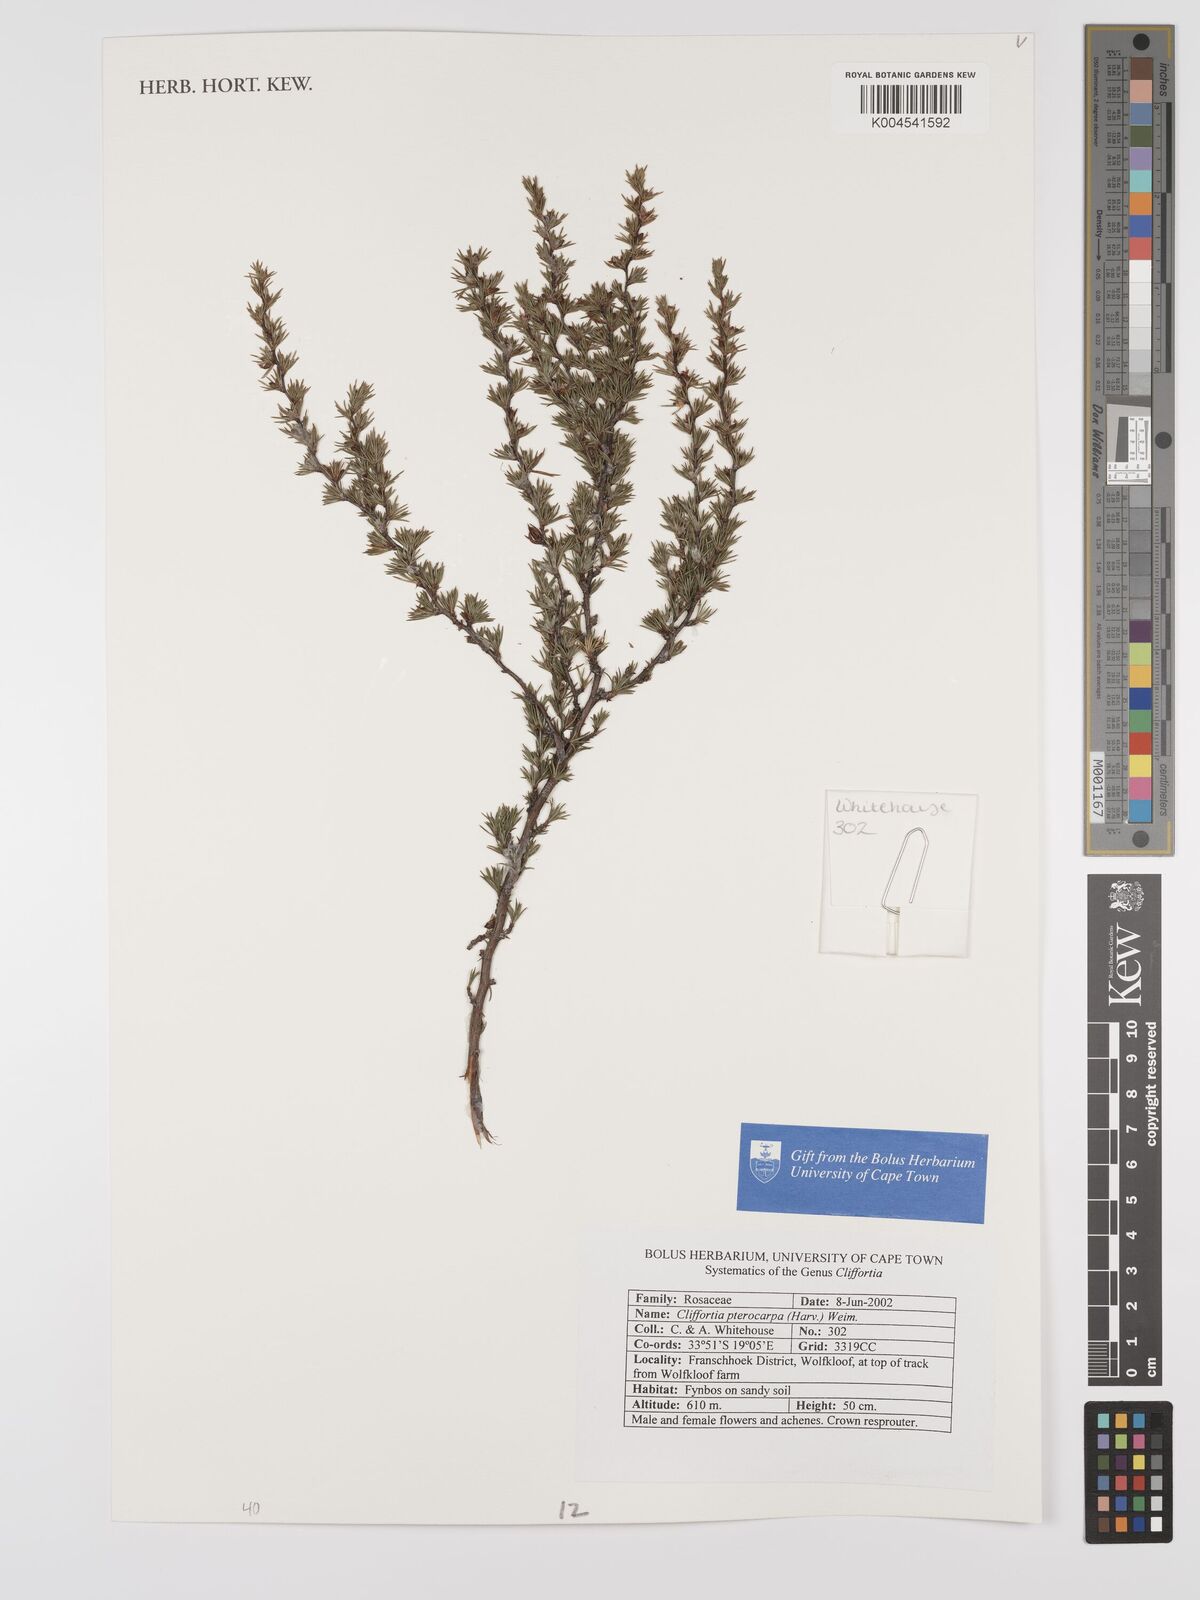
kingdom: Plantae
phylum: Tracheophyta
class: Magnoliopsida
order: Rosales
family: Rosaceae
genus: Cliffortia
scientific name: Cliffortia pterocarpa
